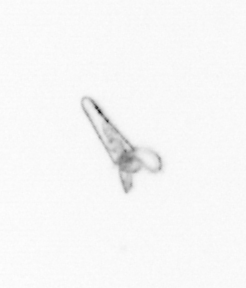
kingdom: Animalia
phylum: Mollusca
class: Gastropoda
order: Pteropoda
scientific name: Pteropoda
